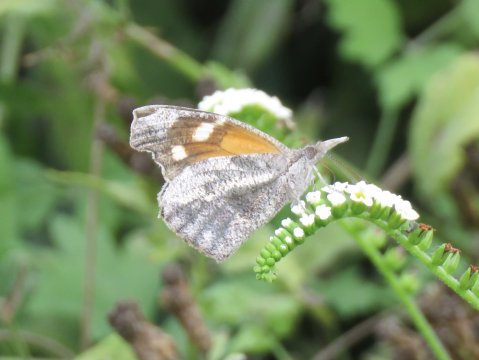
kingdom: Animalia
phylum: Arthropoda
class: Insecta
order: Lepidoptera
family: Nymphalidae
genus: Libytheana
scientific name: Libytheana carinenta
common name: American Snout
